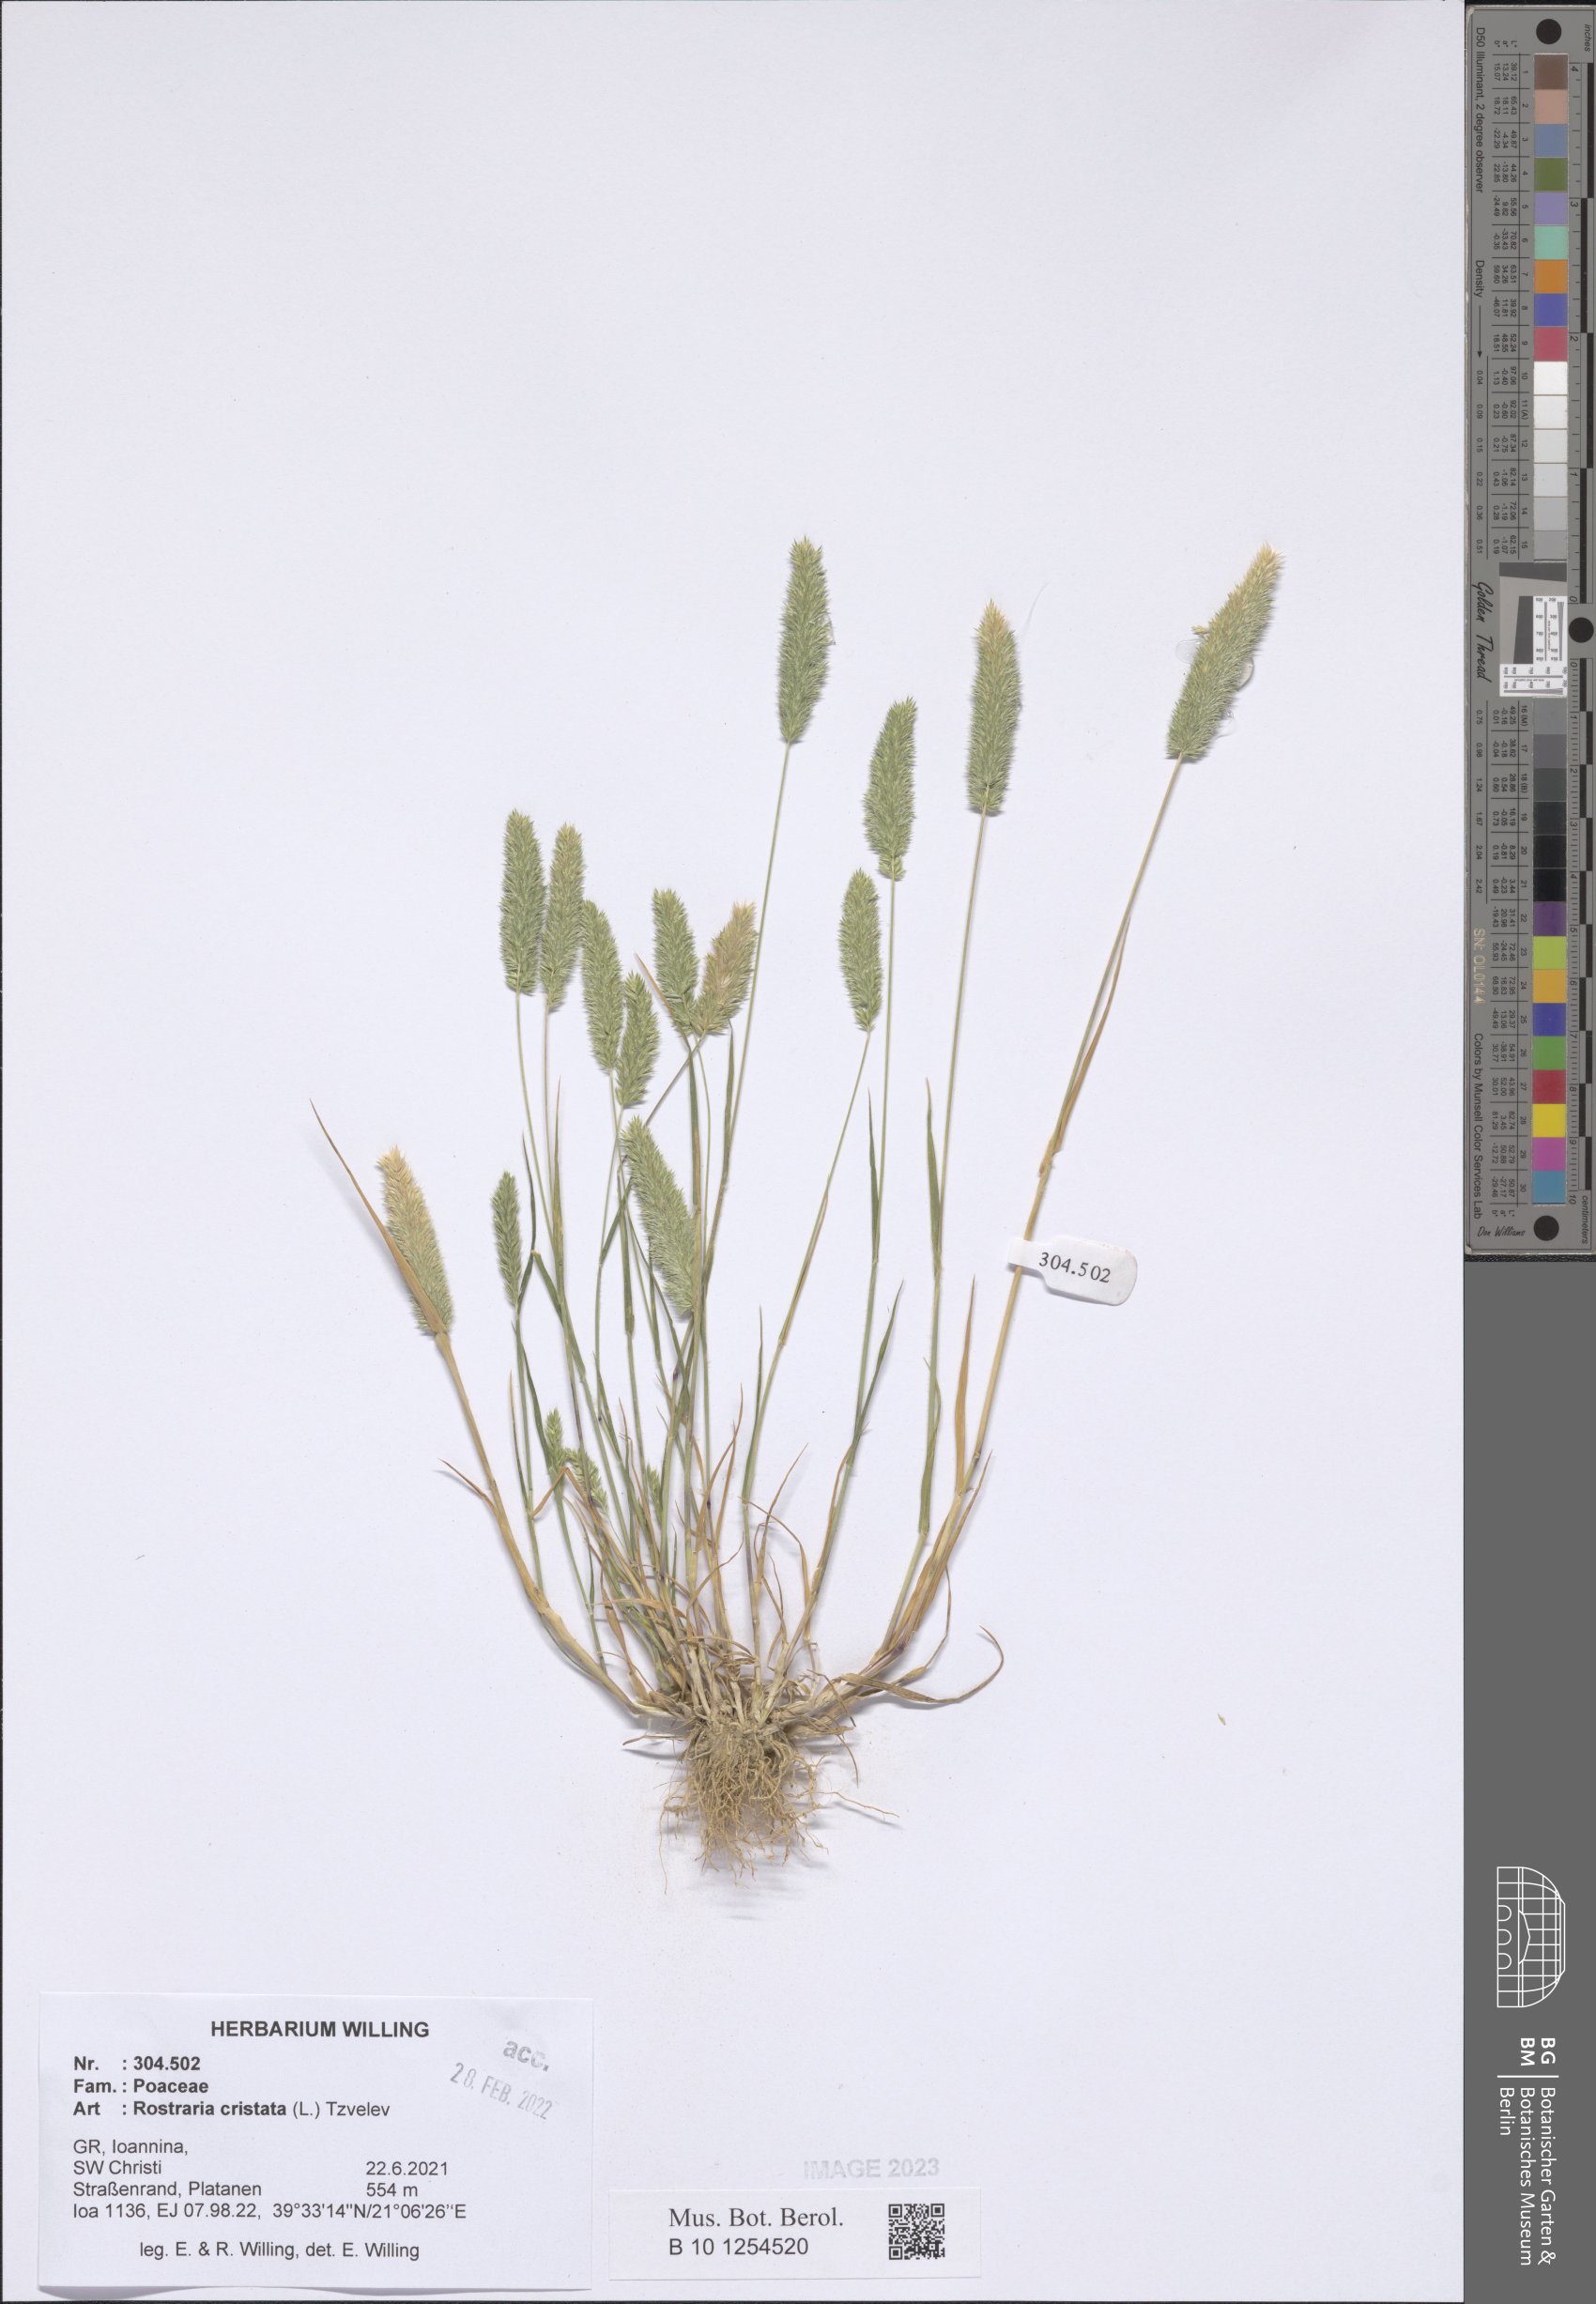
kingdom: Plantae
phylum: Tracheophyta
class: Liliopsida
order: Poales
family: Poaceae
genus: Rostraria
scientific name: Rostraria cristata
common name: Mediterranean hair-grass
